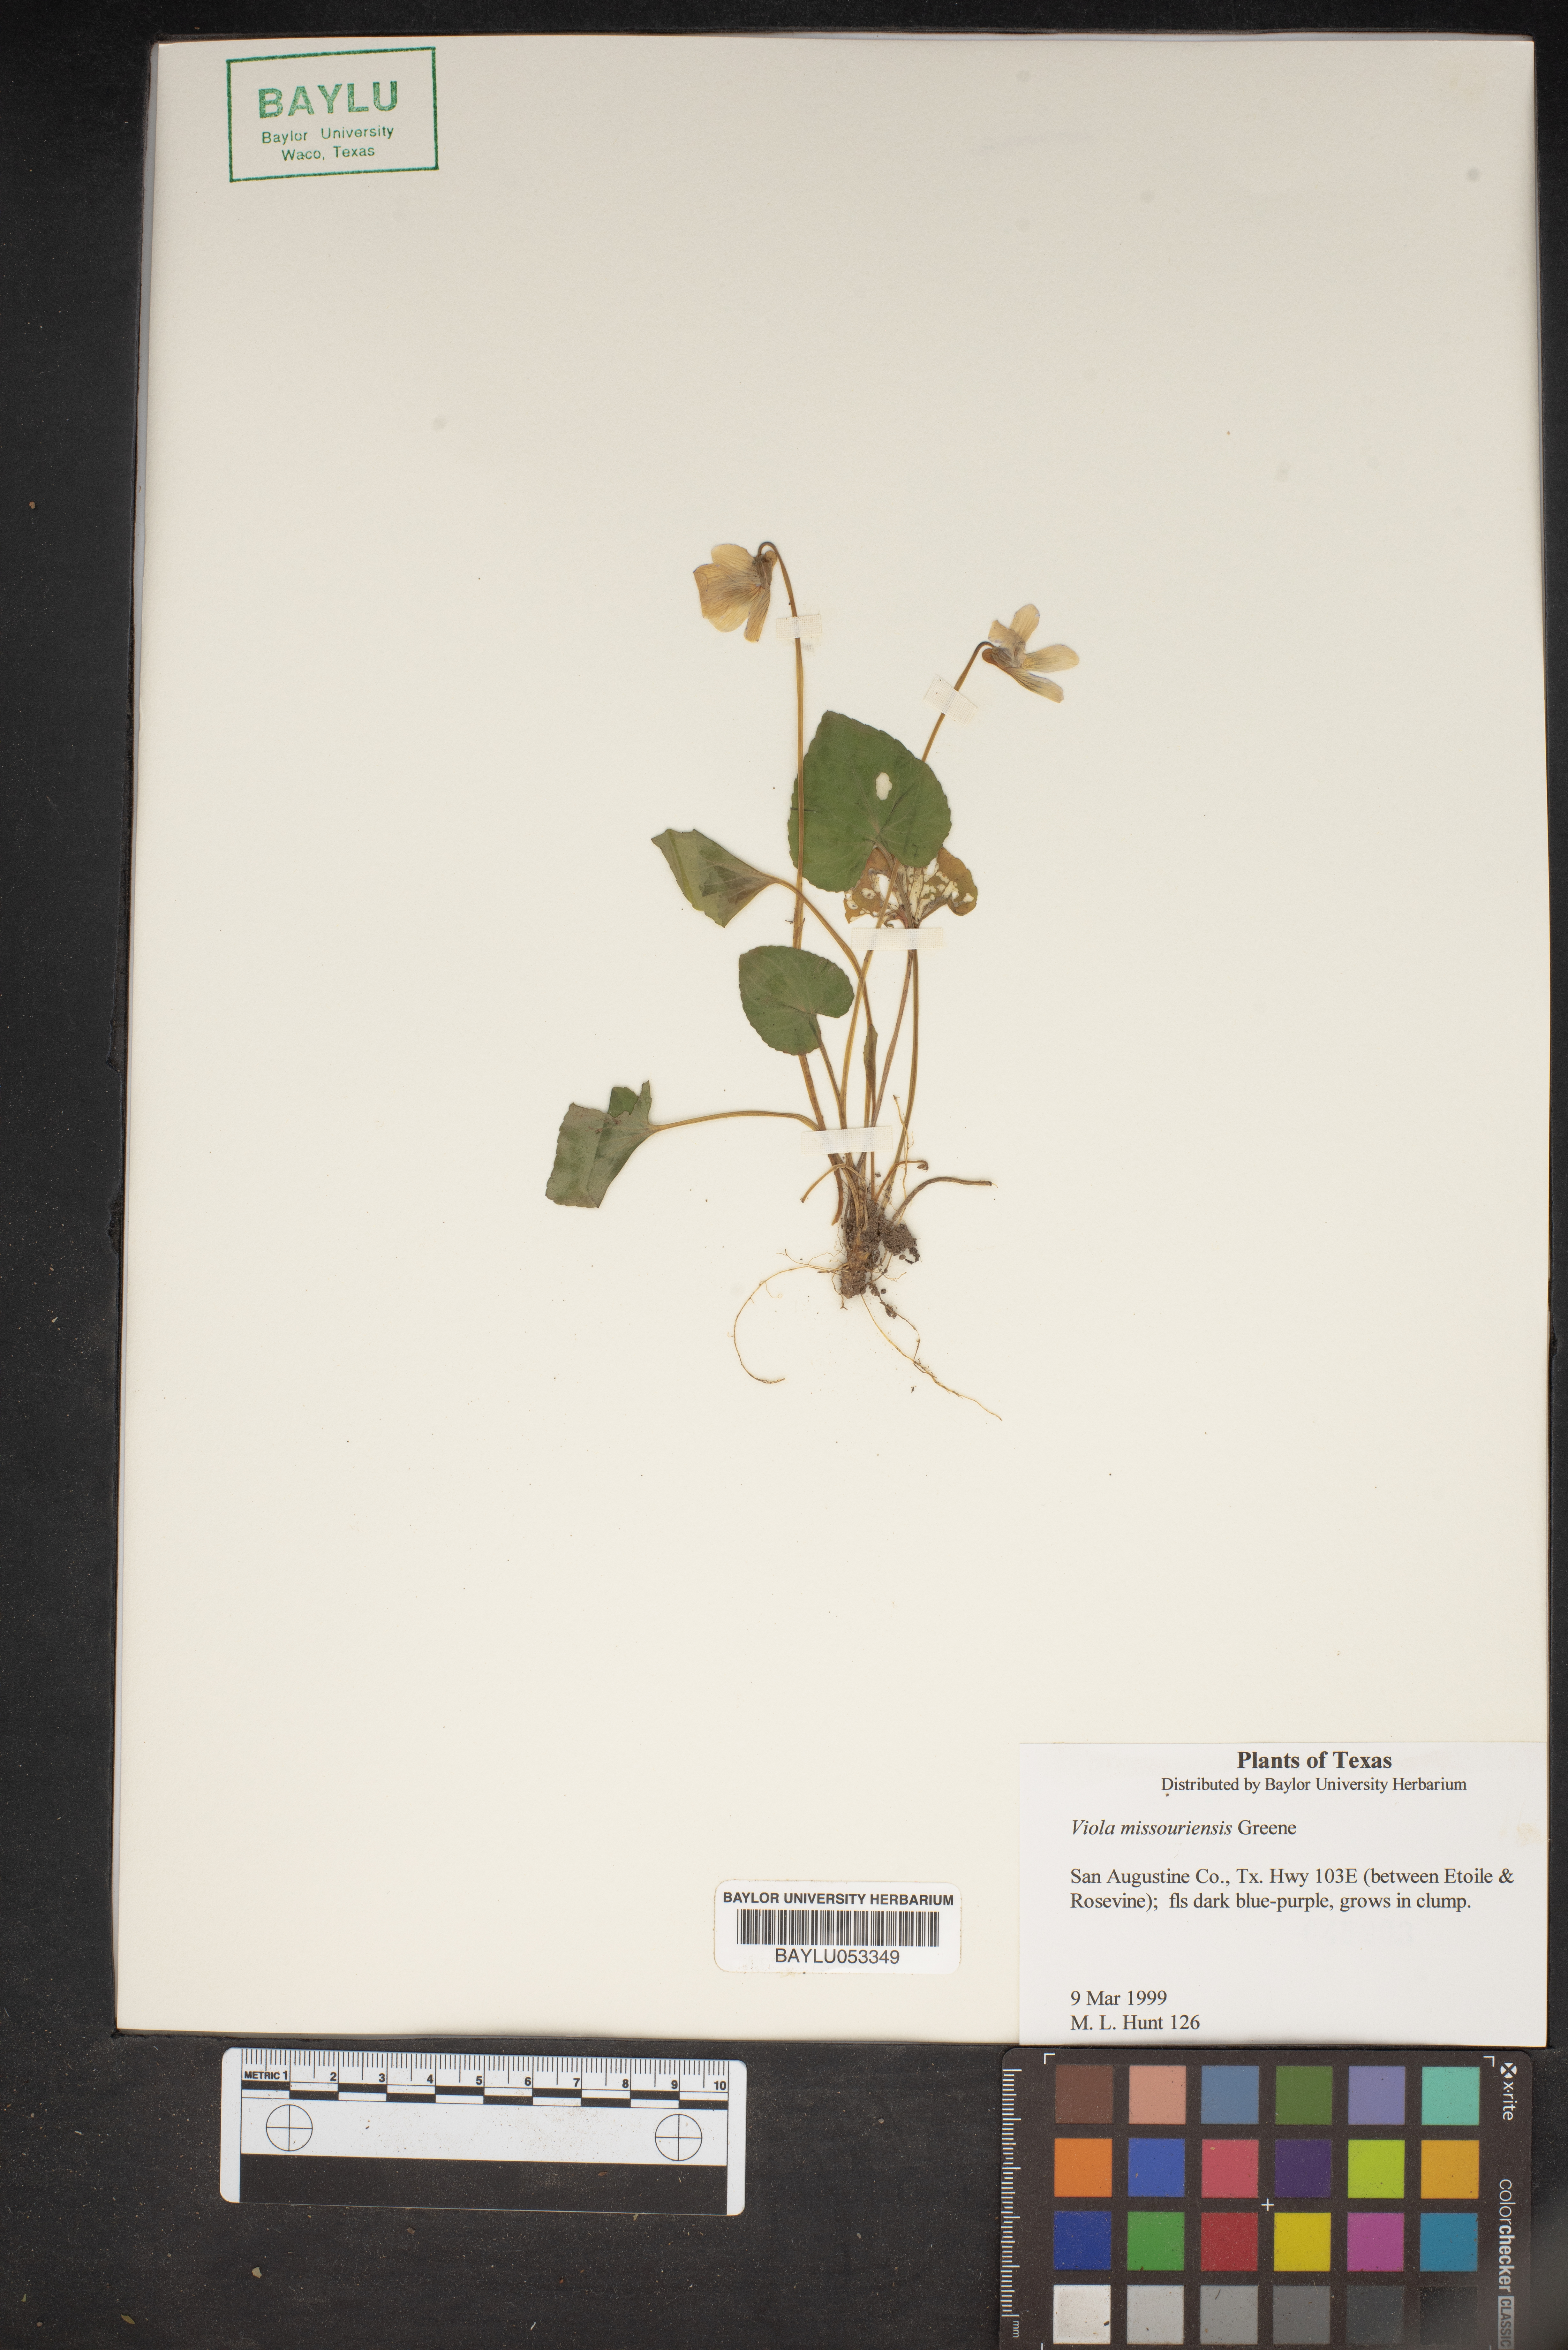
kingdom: Plantae
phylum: Tracheophyta
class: Magnoliopsida
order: Malpighiales
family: Violaceae
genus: Viola
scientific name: Viola missouriensis
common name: Missouri violet
